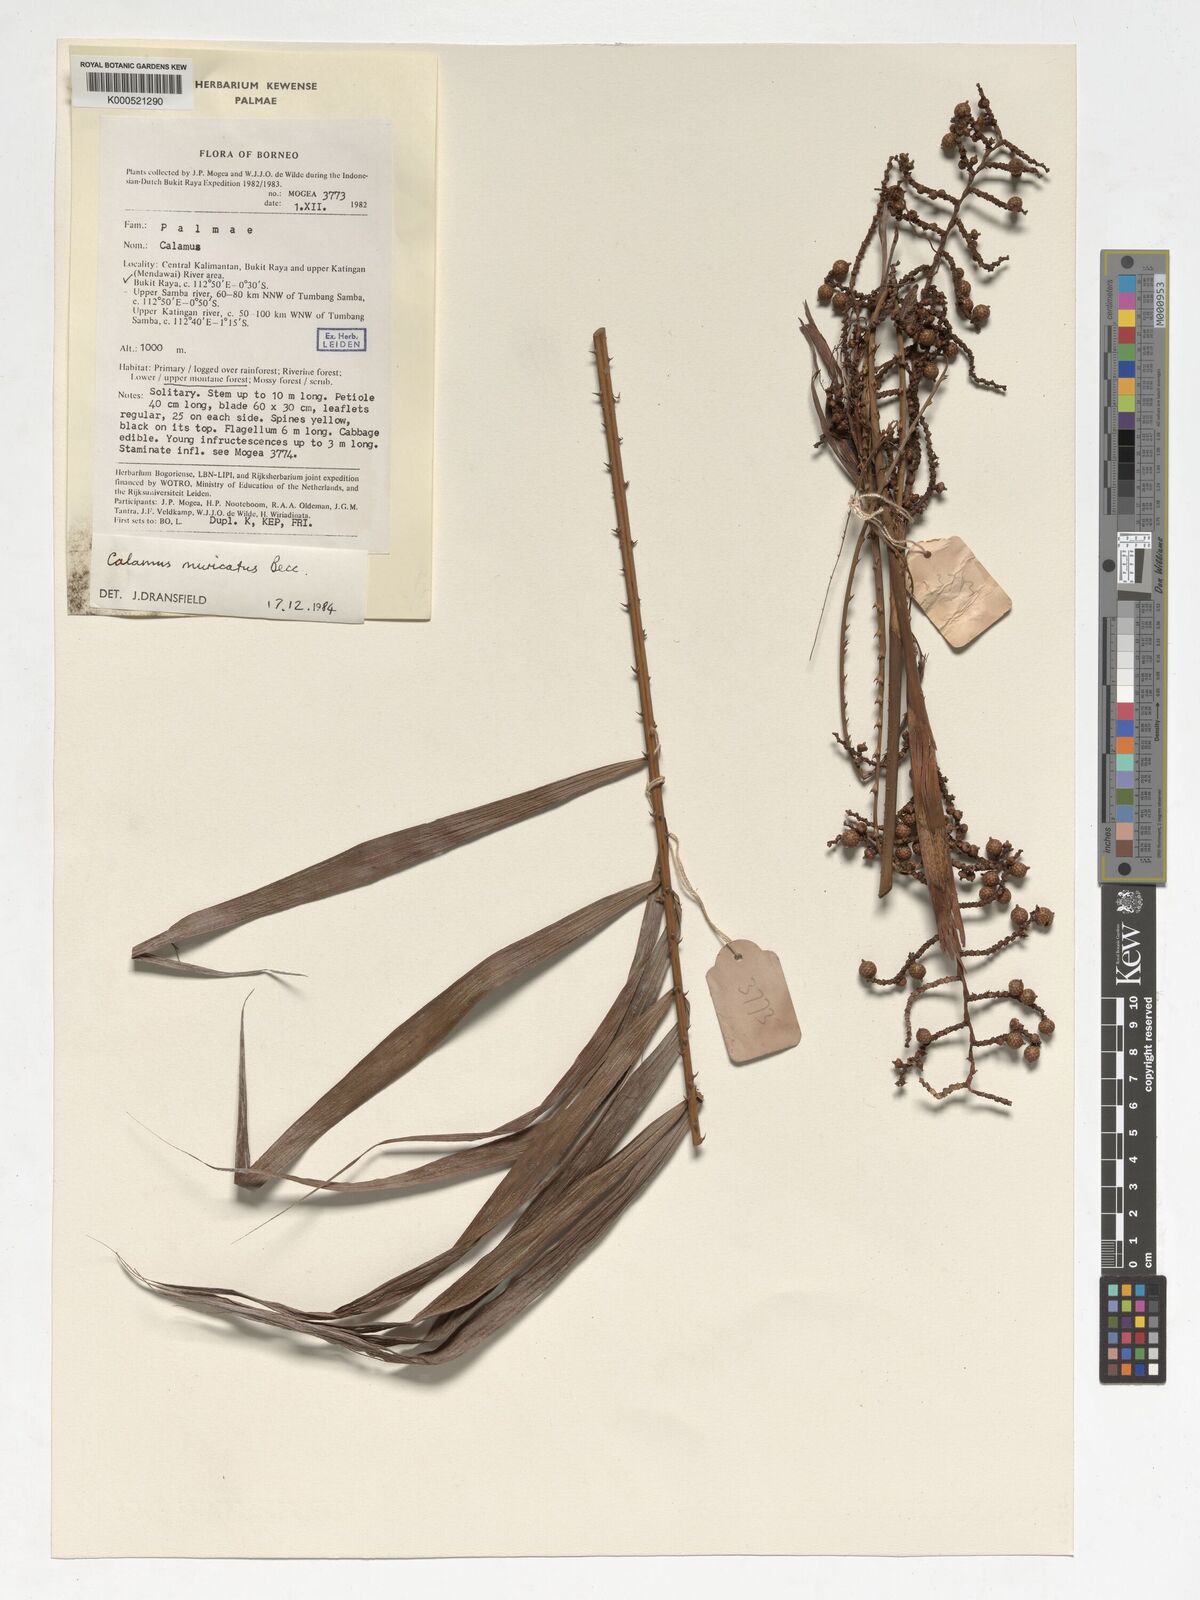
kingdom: Plantae
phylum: Tracheophyta
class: Liliopsida
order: Arecales
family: Arecaceae
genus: Calamus
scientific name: Calamus muricatus
